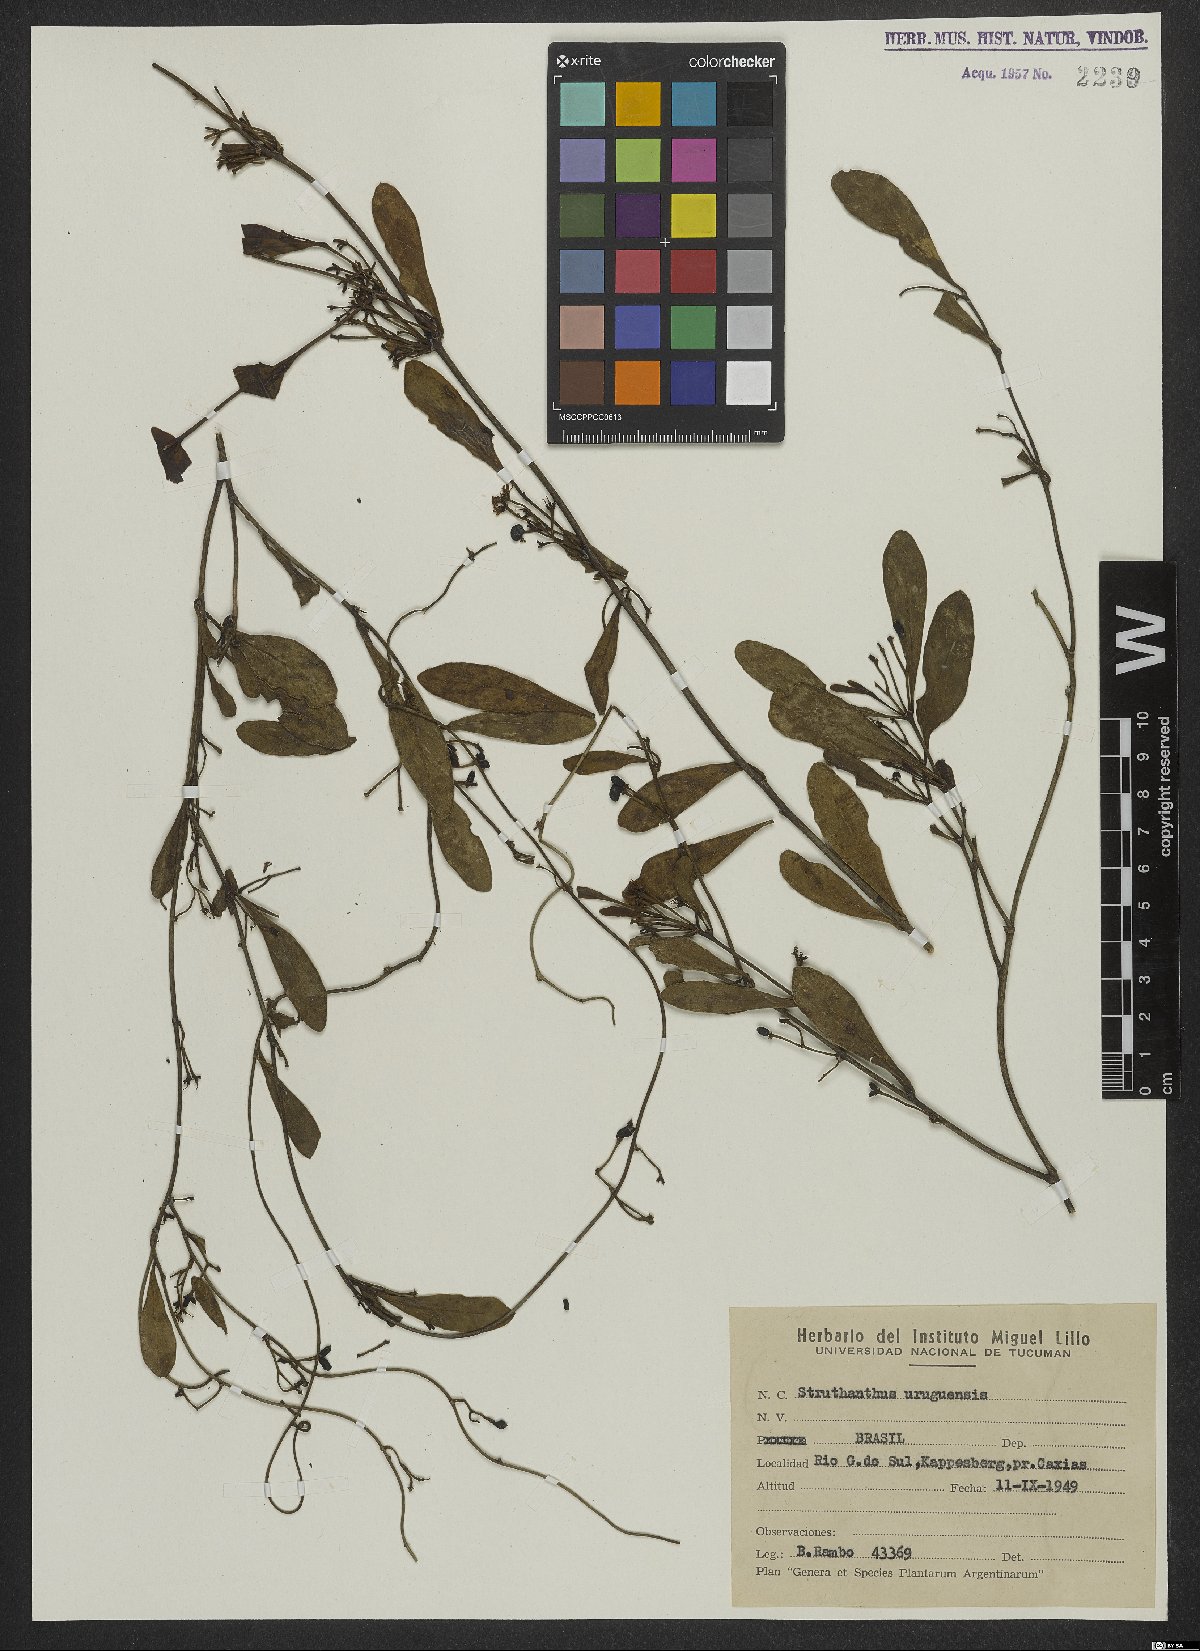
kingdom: Plantae
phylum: Tracheophyta
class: Magnoliopsida
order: Santalales
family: Loranthaceae
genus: Struthanthus
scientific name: Struthanthus uraguensis
